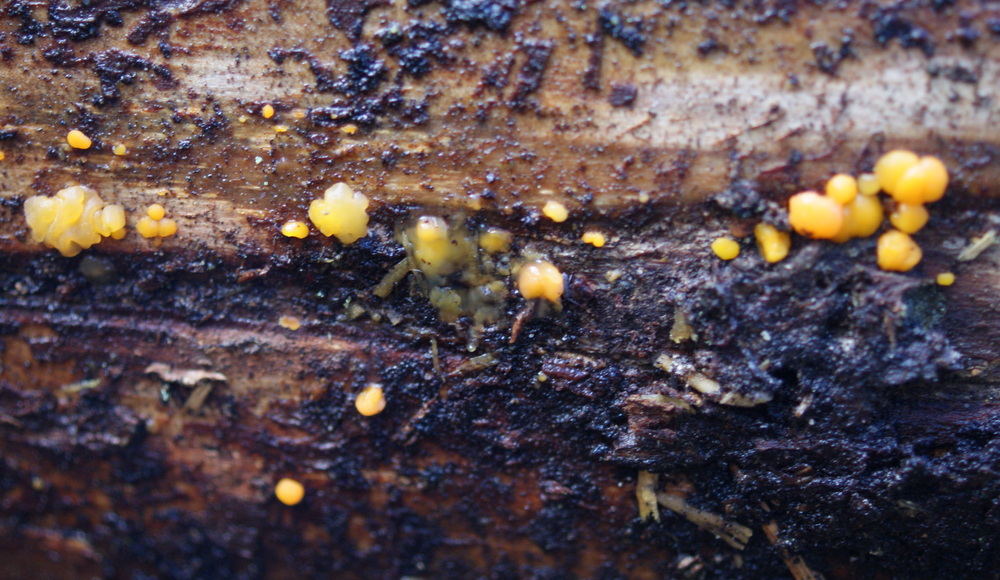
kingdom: Fungi
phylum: Basidiomycota
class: Dacrymycetes
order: Dacrymycetales
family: Dacrymycetaceae
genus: Dacrymyces
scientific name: Dacrymyces stillatus
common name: almindelig tåresvamp
